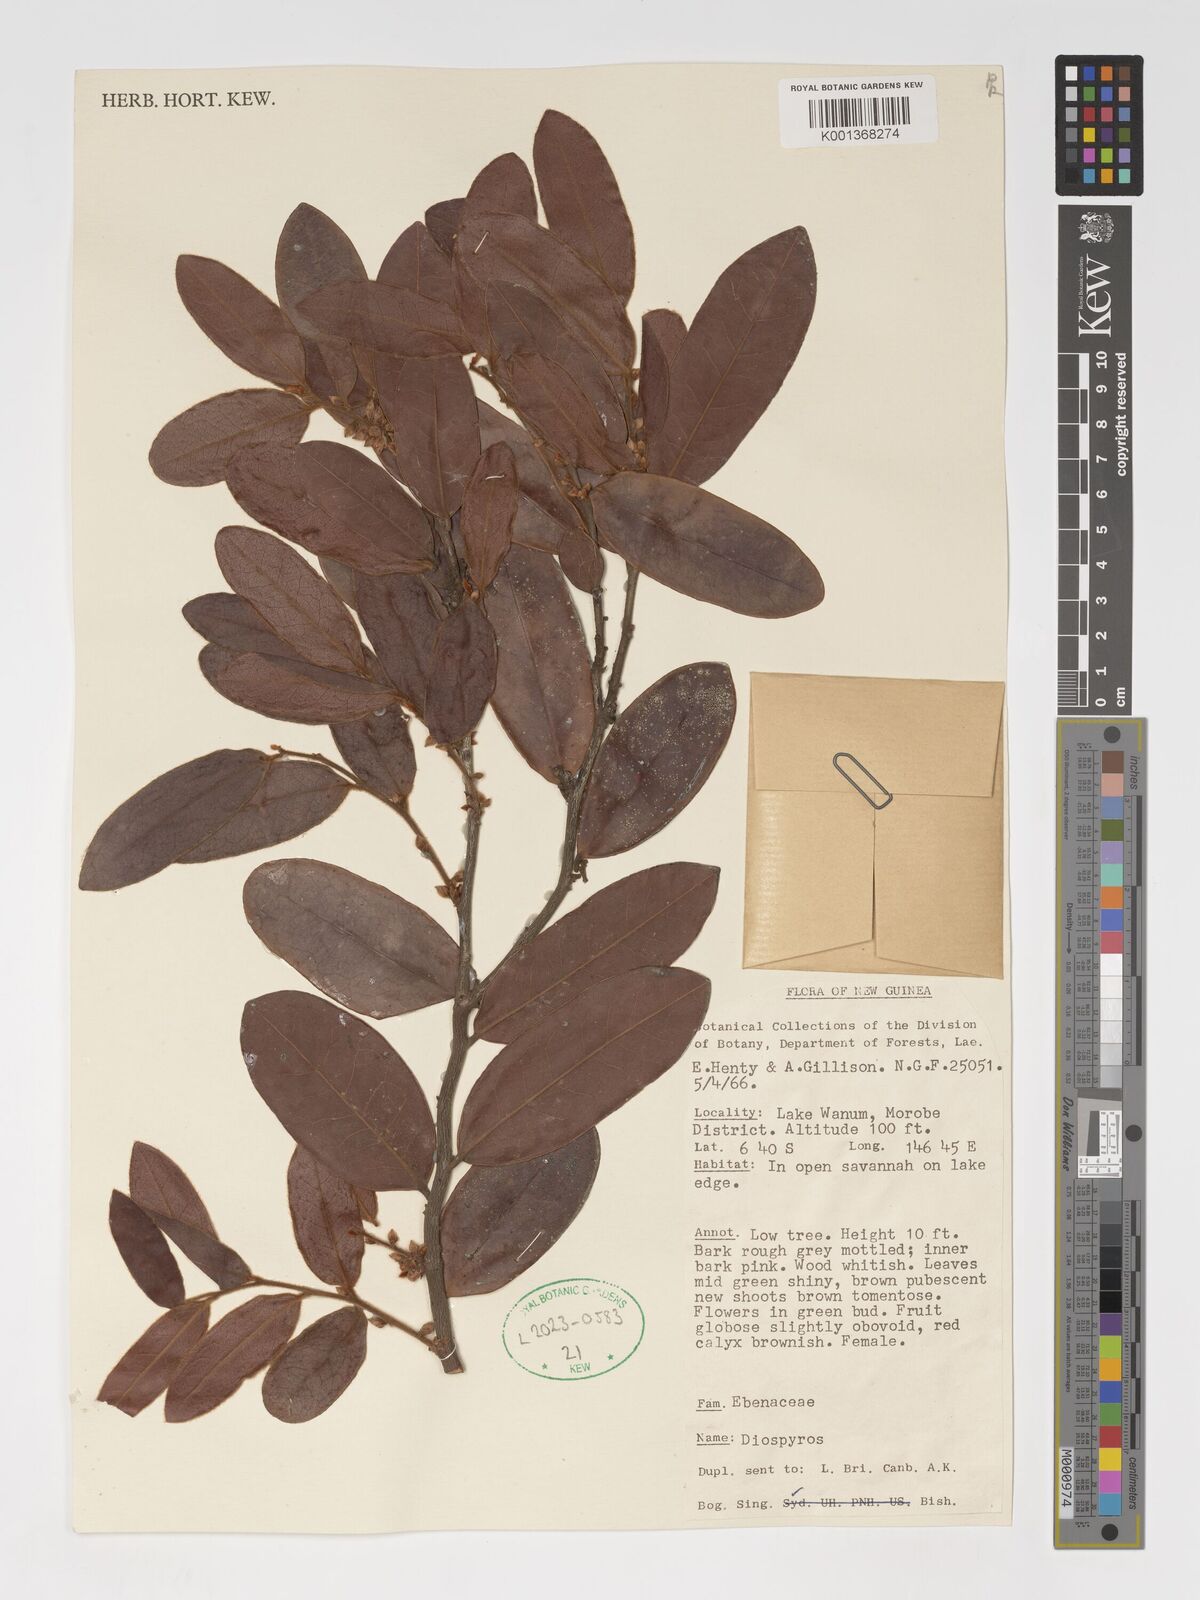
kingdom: Plantae
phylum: Tracheophyta
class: Magnoliopsida
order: Ericales
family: Ebenaceae
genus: Diospyros
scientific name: Diospyros
